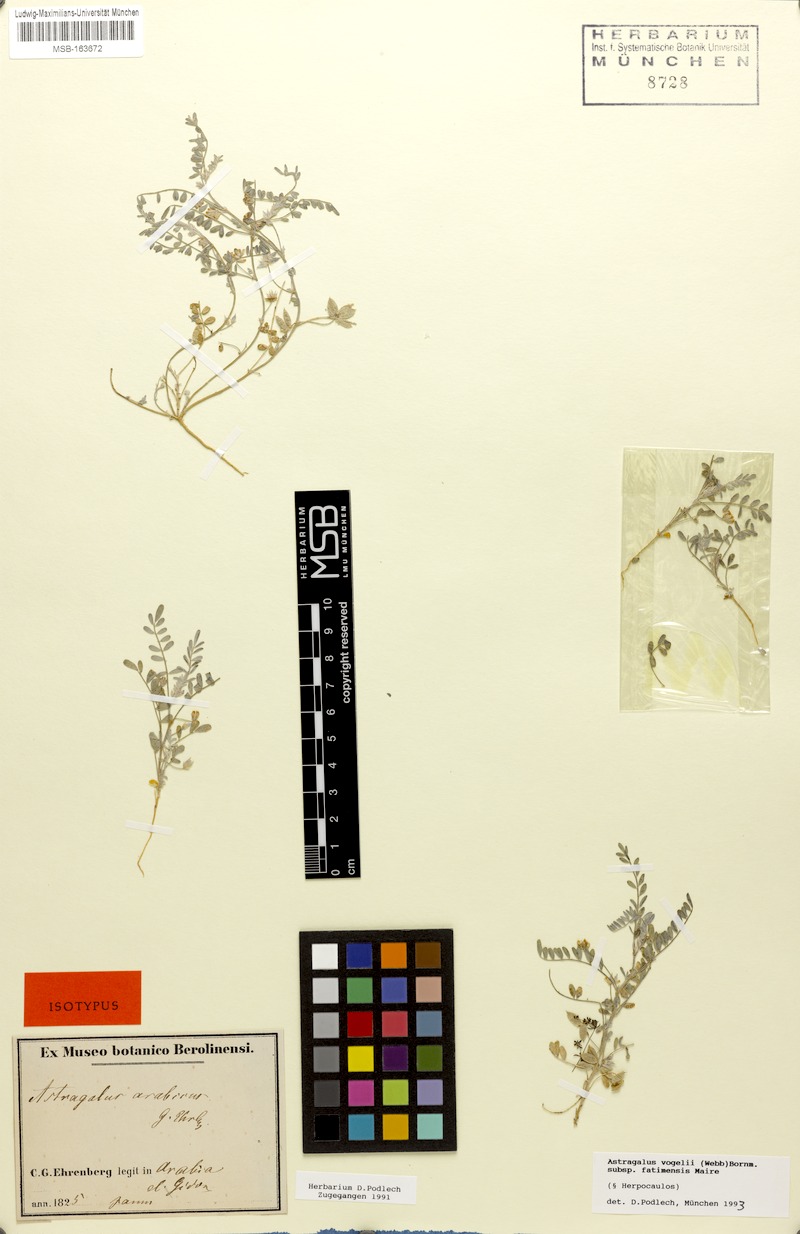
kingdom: Plantae
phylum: Tracheophyta
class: Magnoliopsida
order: Fabales
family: Fabaceae
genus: Astragalus
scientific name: Astragalus vogelii
